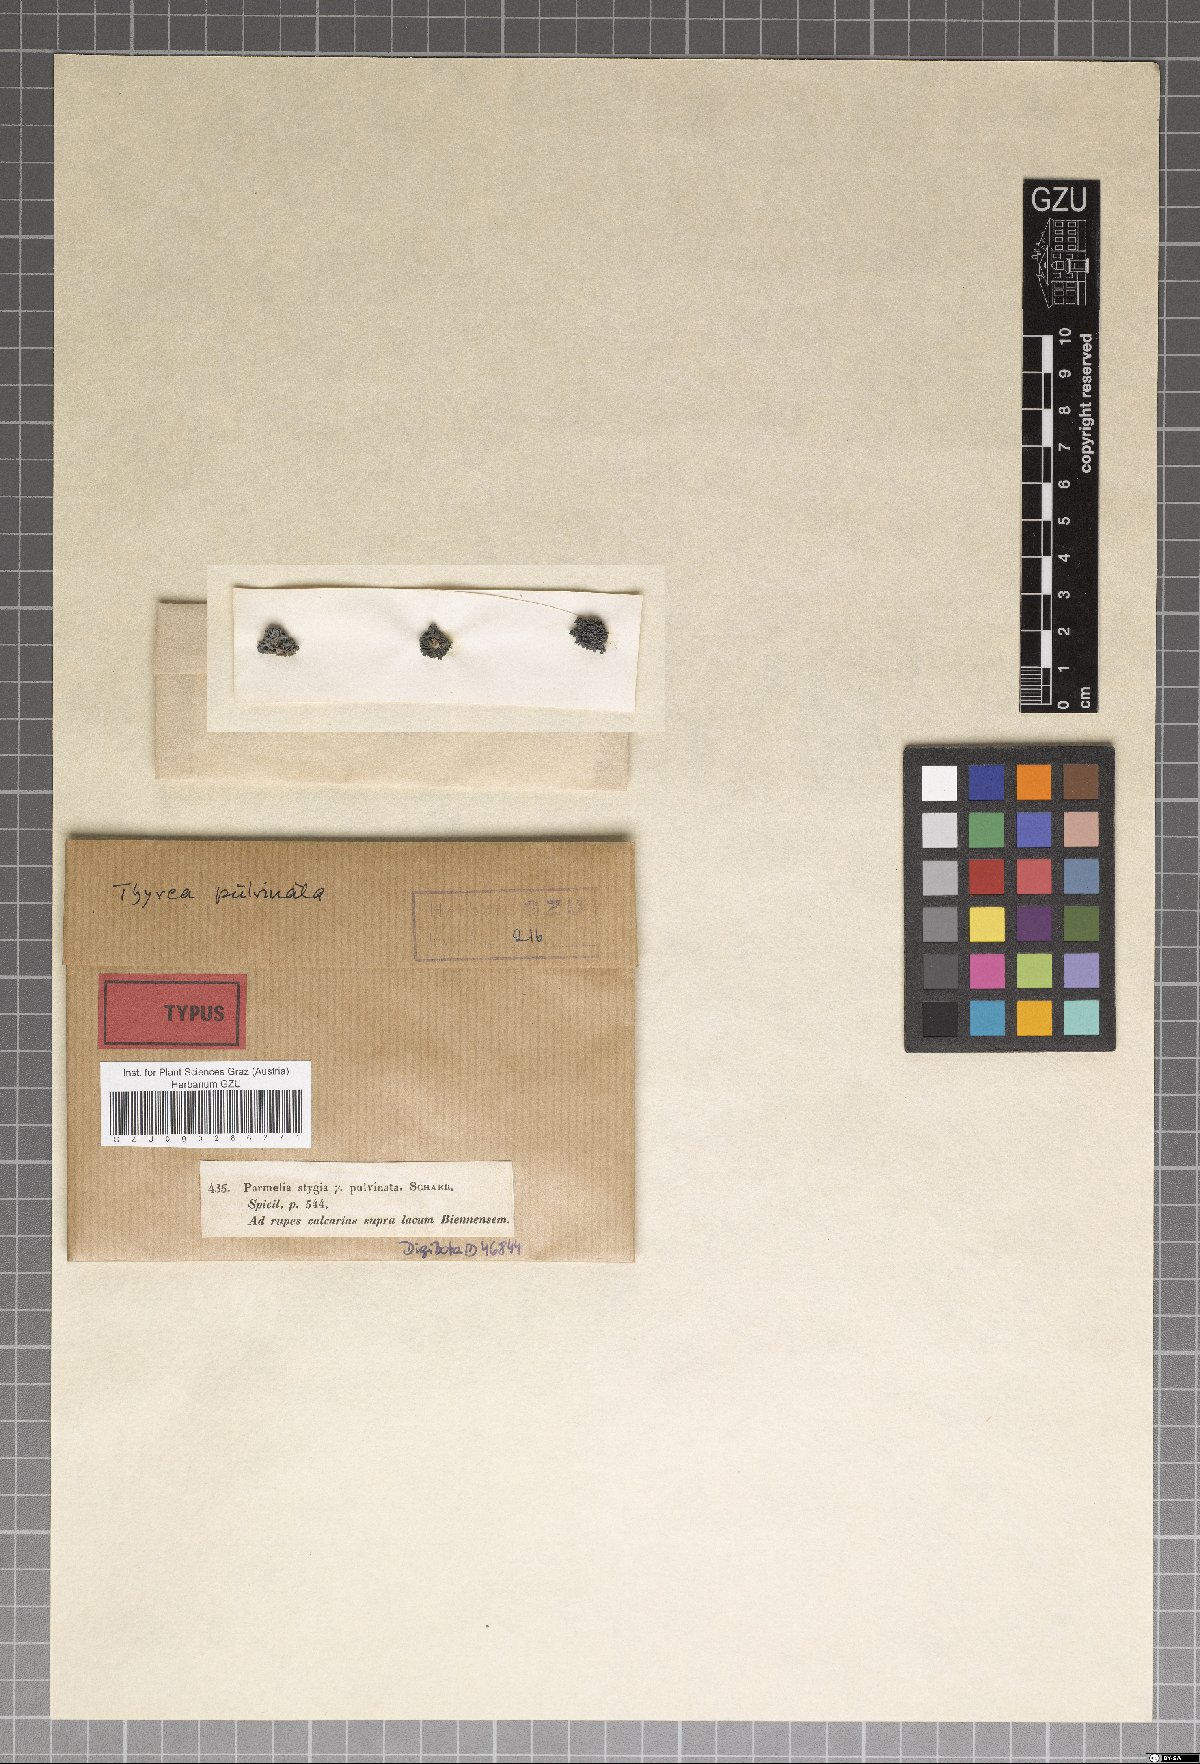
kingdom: Fungi
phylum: Ascomycota
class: Lecanoromycetes
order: Lecanorales
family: Parmeliaceae
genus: Parmelinella
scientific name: Parmelinella
